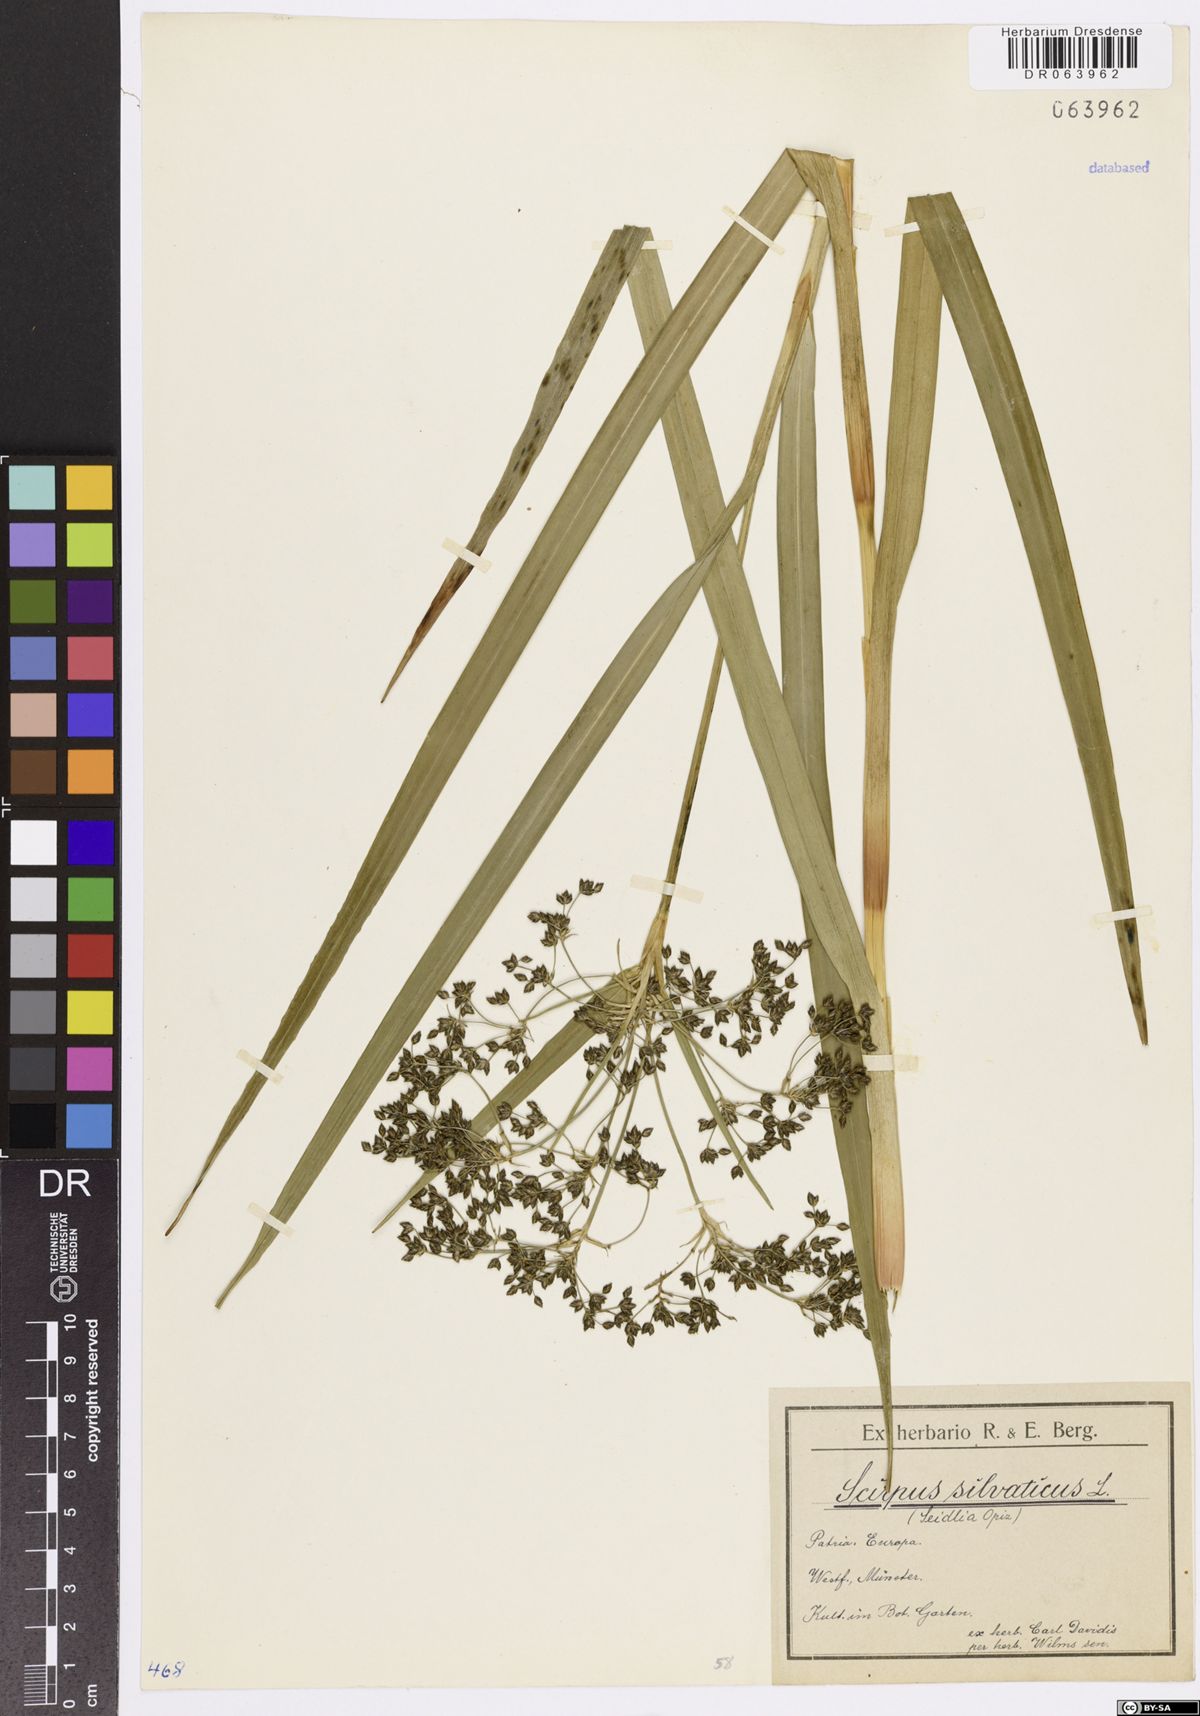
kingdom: Plantae
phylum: Tracheophyta
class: Liliopsida
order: Poales
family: Cyperaceae
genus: Scirpus
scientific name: Scirpus sylvaticus
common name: Wood club-rush
